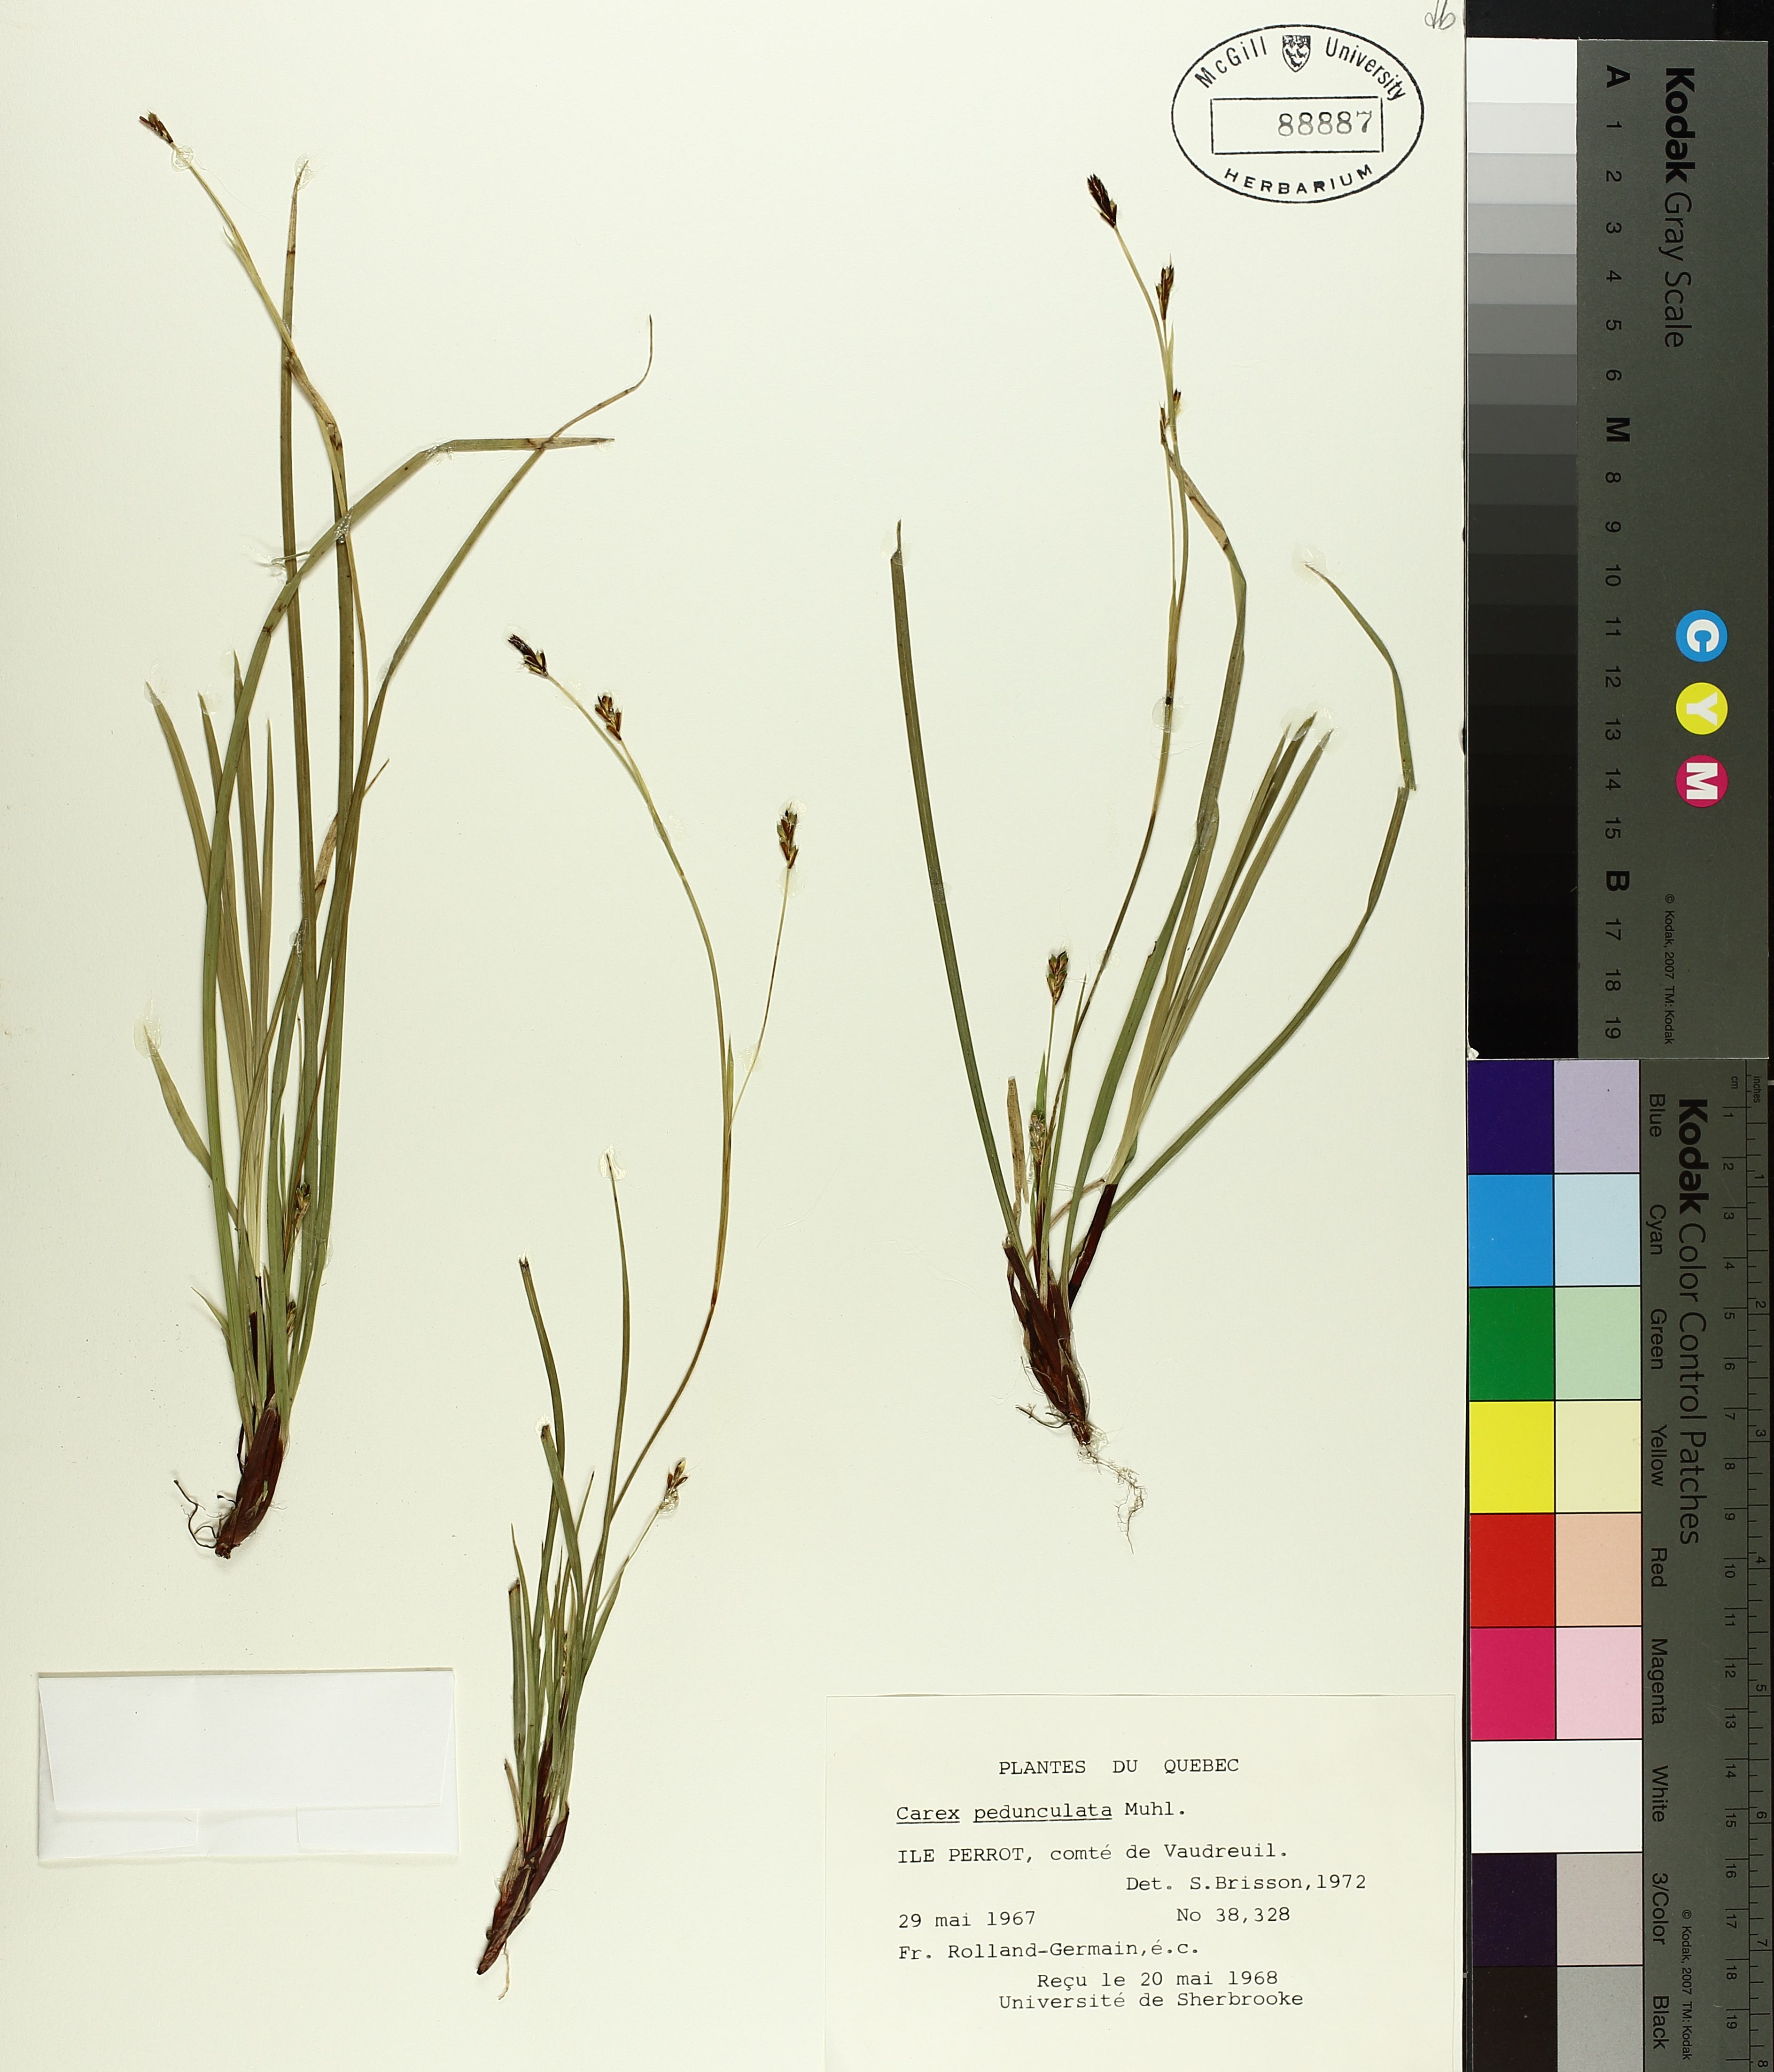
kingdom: Plantae
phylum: Tracheophyta
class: Liliopsida
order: Poales
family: Cyperaceae
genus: Carex
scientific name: Carex pedunculata
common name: Pedunculate sedge
